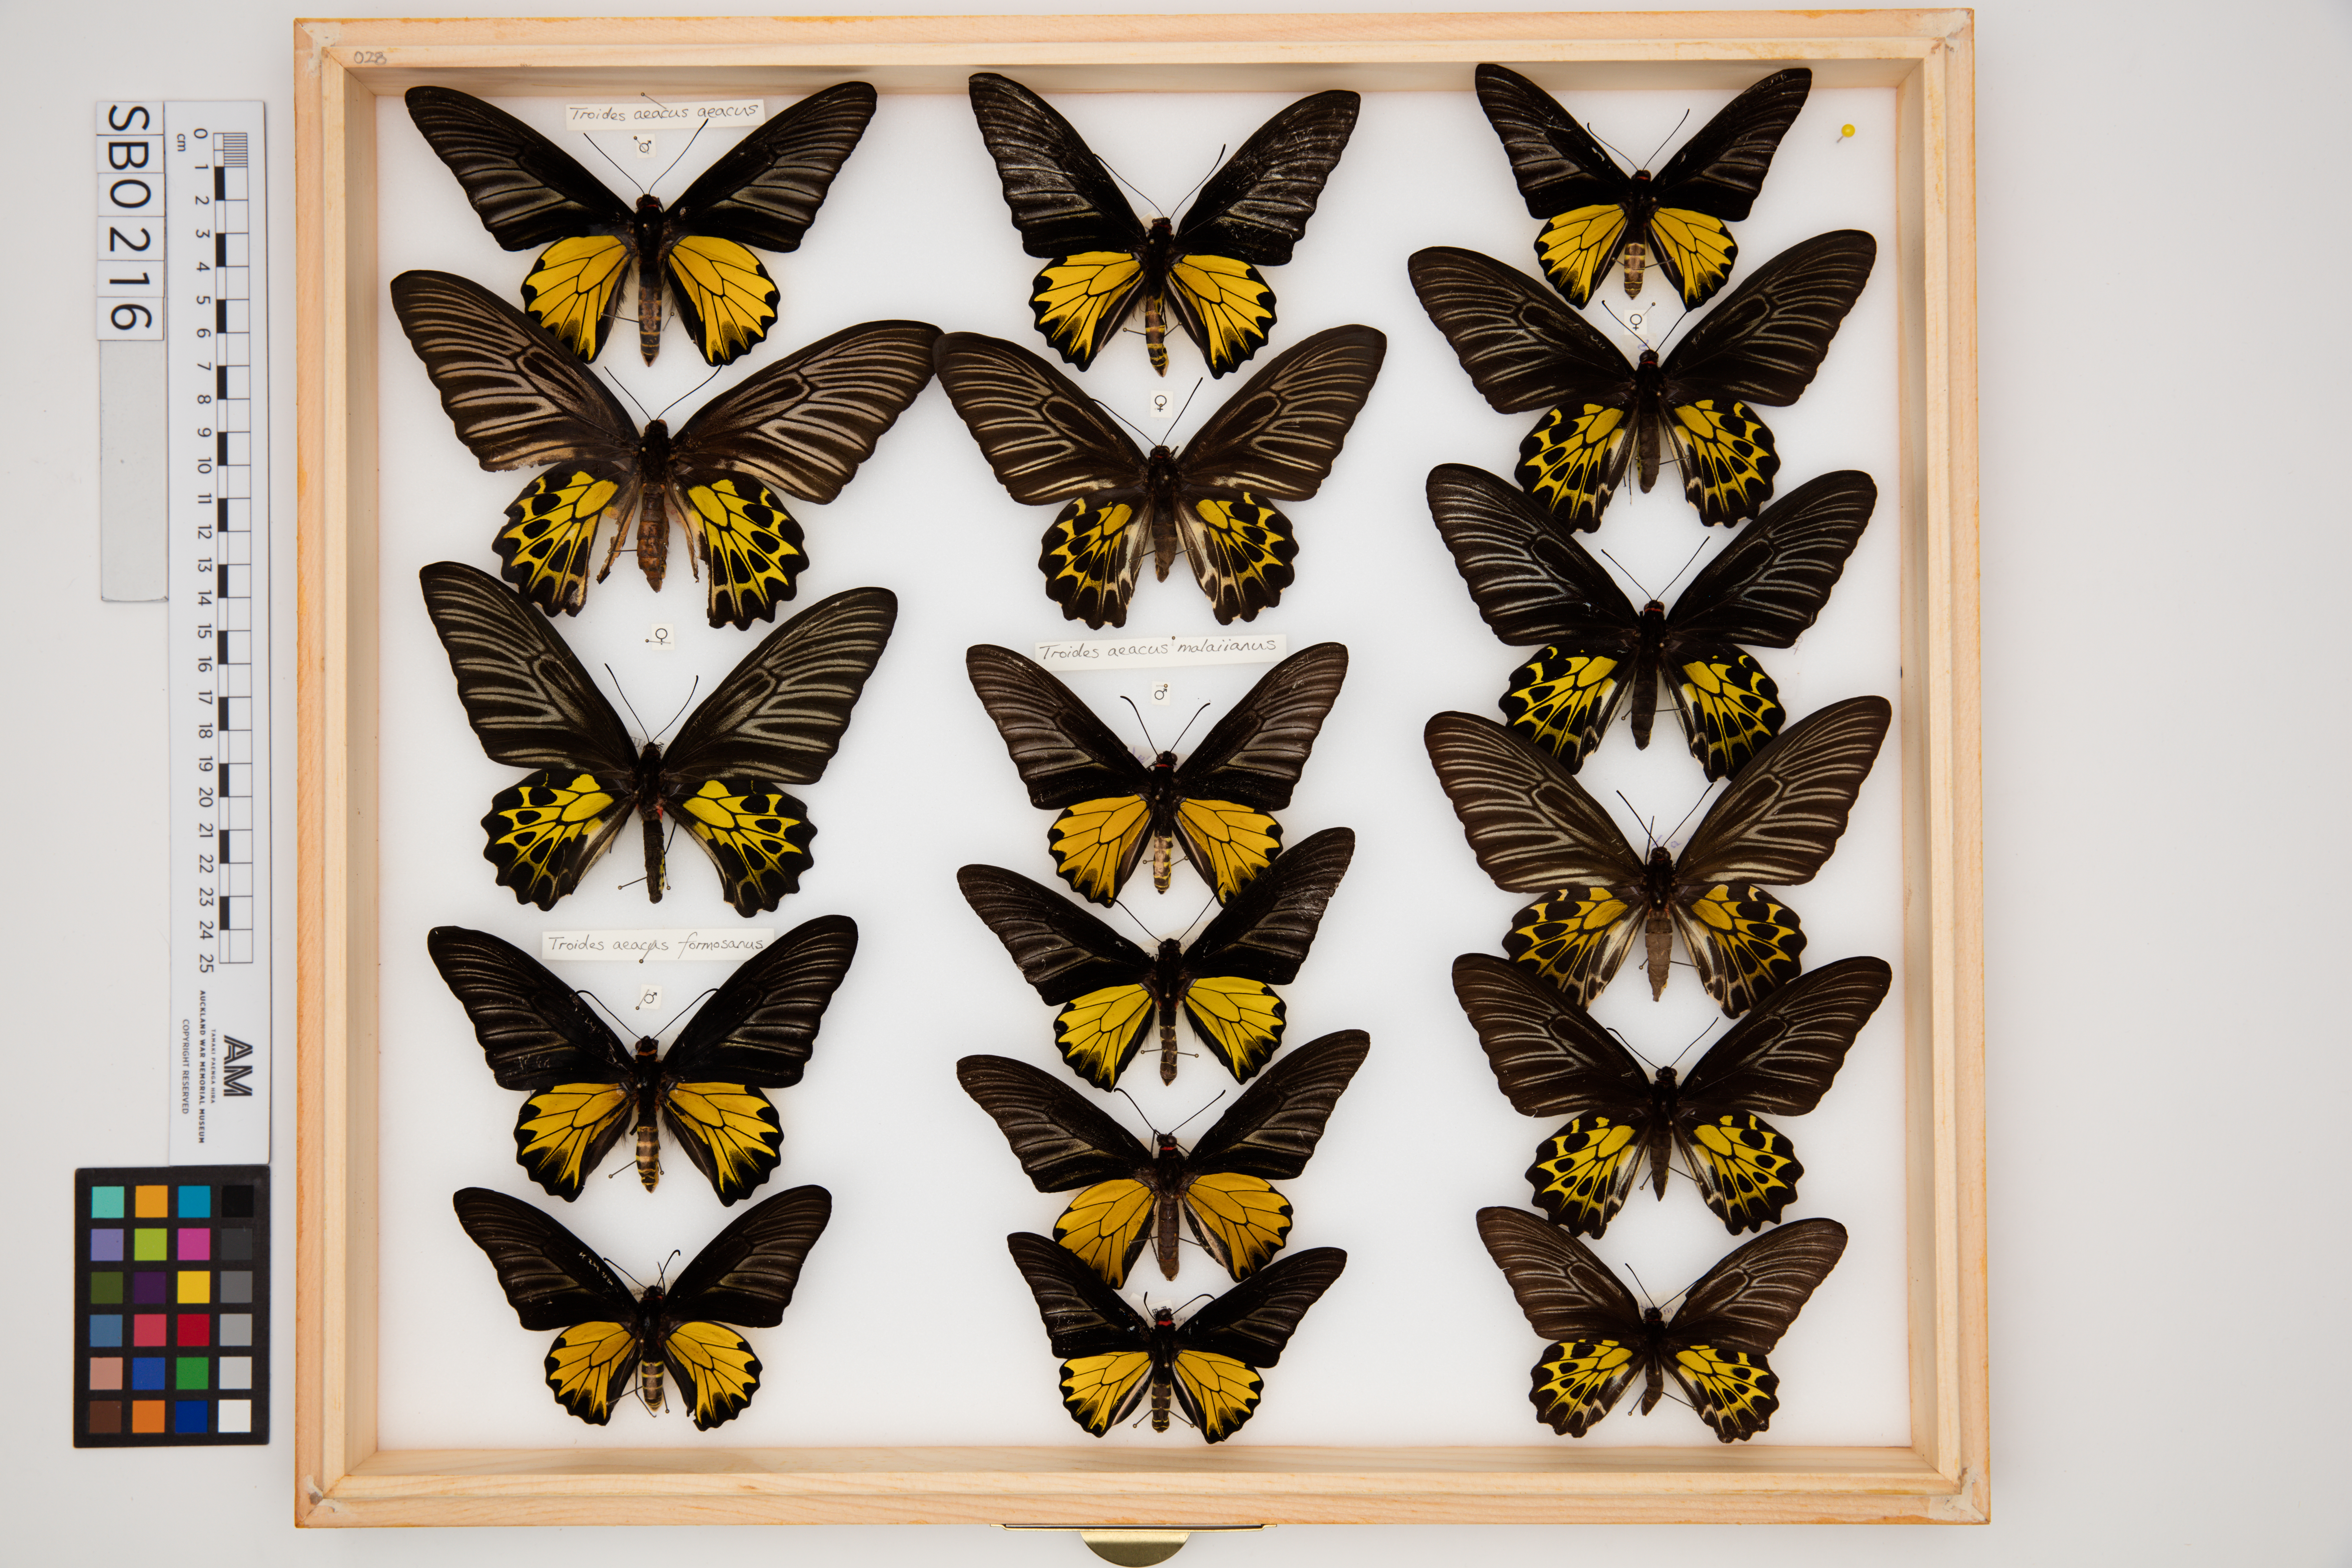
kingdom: Animalia
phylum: Arthropoda
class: Insecta
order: Lepidoptera
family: Papilionidae
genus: Troides
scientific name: Troides aeacus
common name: Golden birdwing
